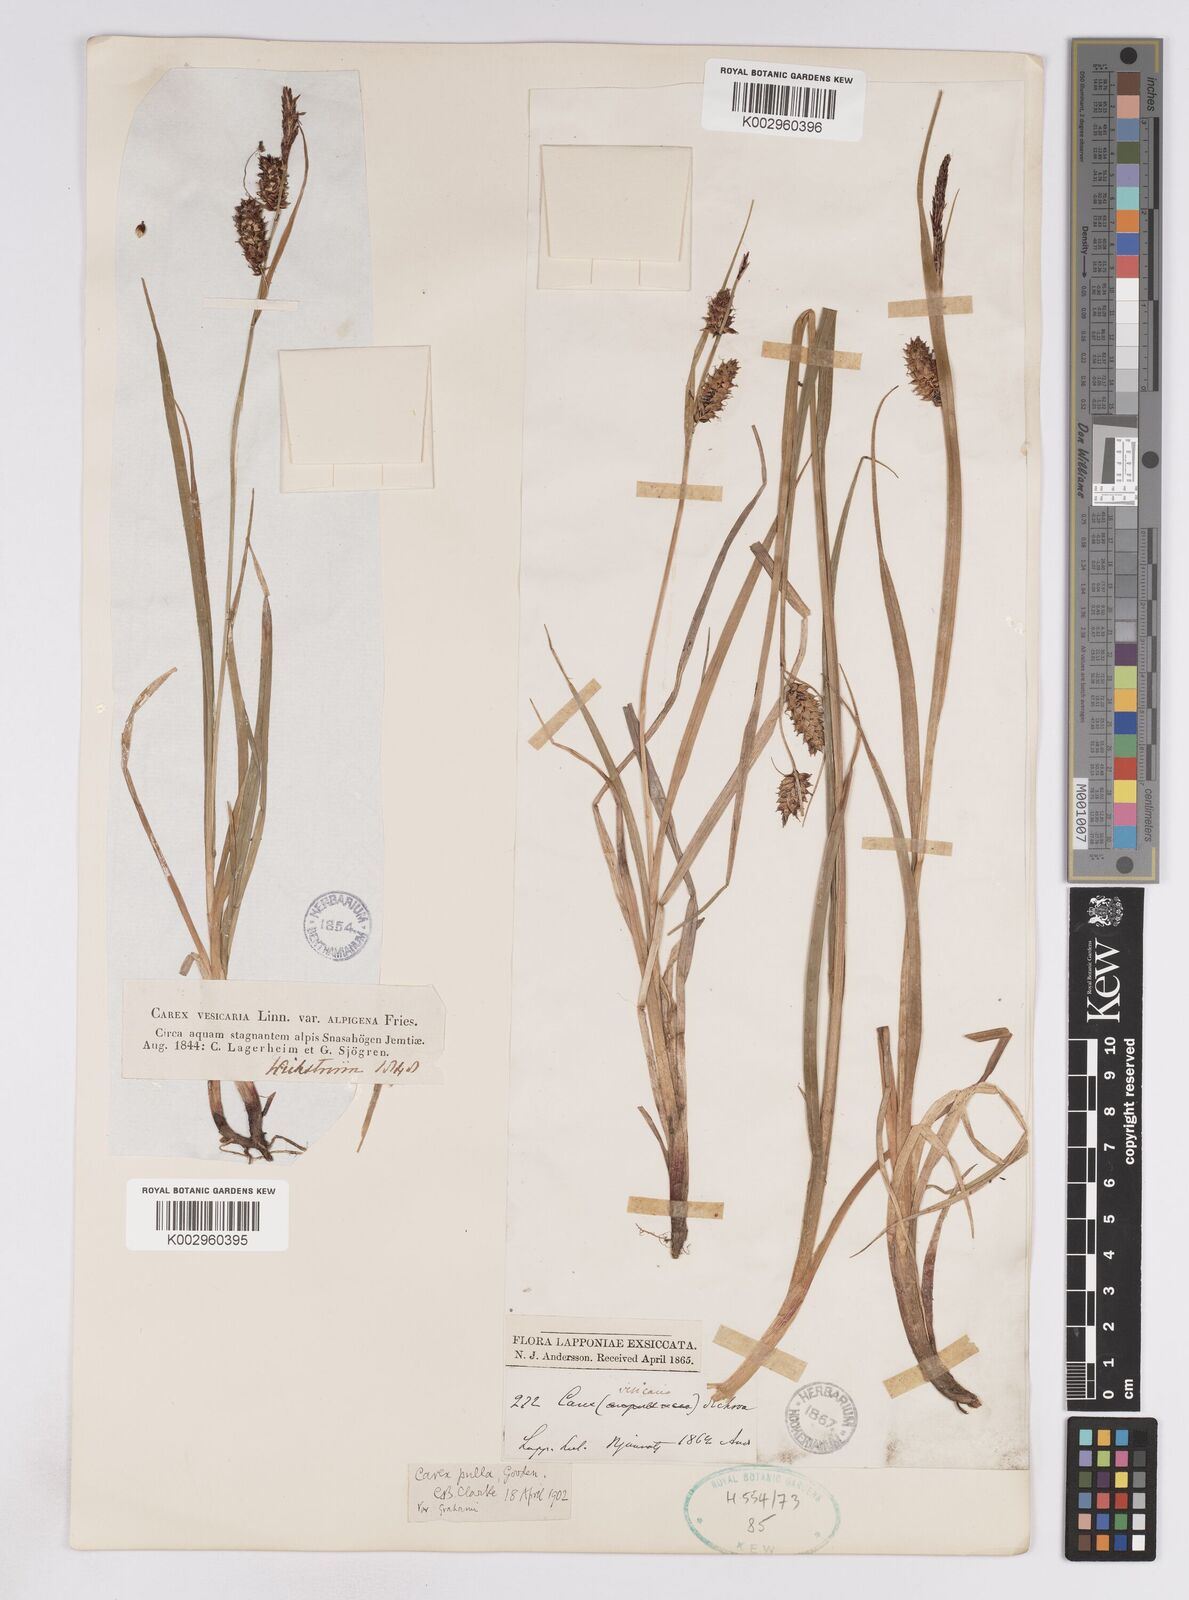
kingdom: Plantae
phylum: Tracheophyta
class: Liliopsida
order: Poales
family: Cyperaceae
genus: Carex
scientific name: Carex rostrata
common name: Bottle sedge
